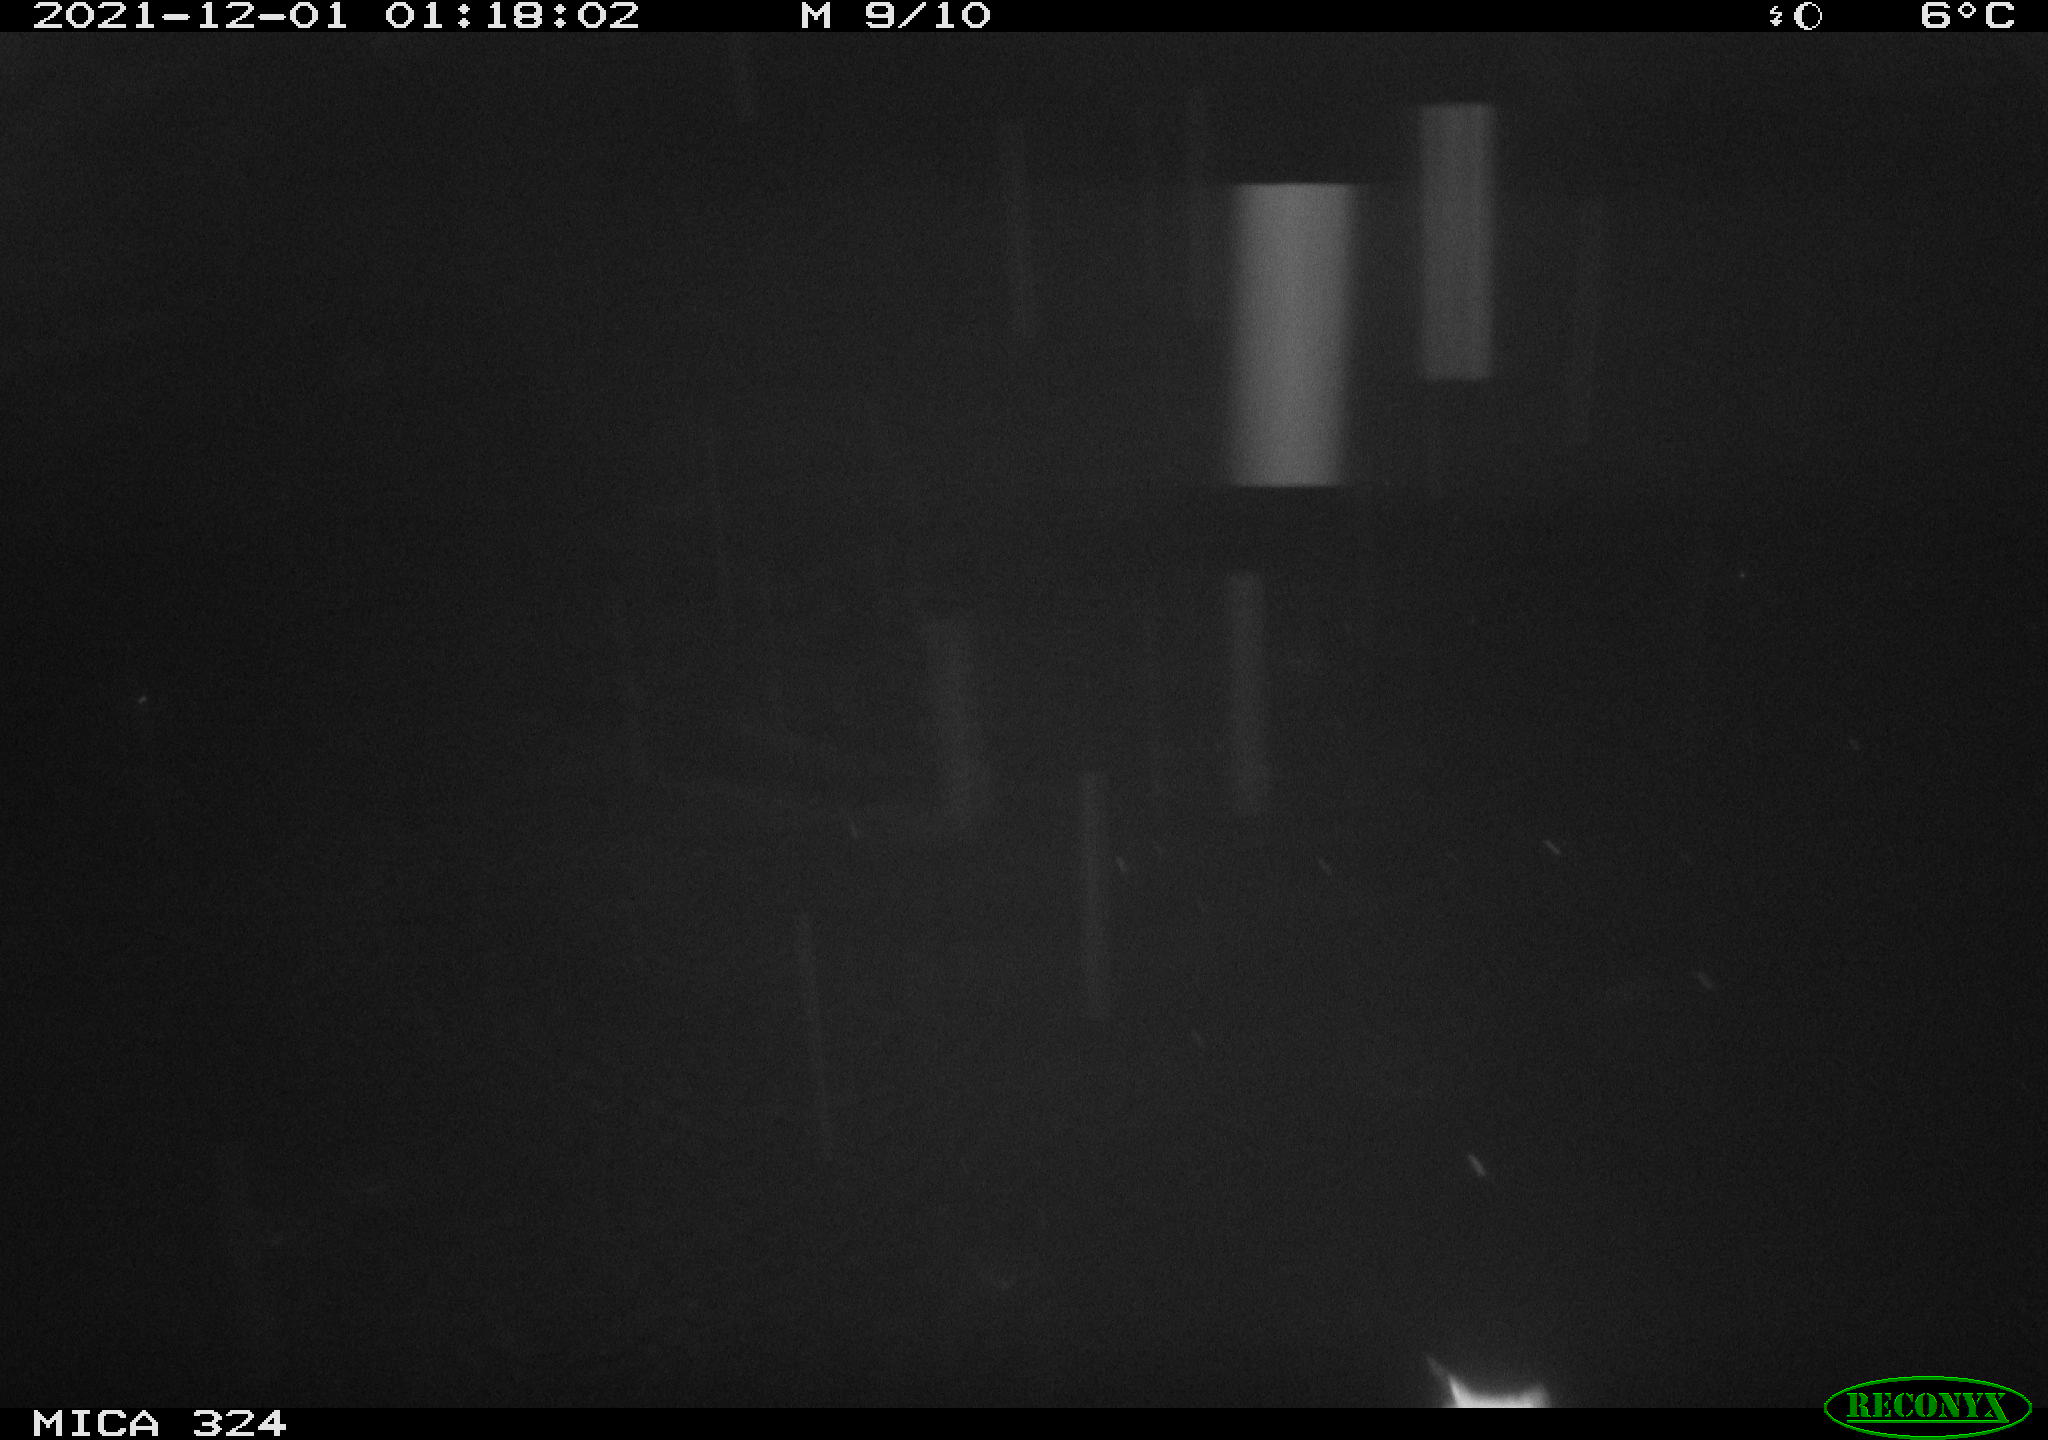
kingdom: Animalia
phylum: Chordata
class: Mammalia
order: Rodentia
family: Cricetidae
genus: Ondatra
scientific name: Ondatra zibethicus
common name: Muskrat
